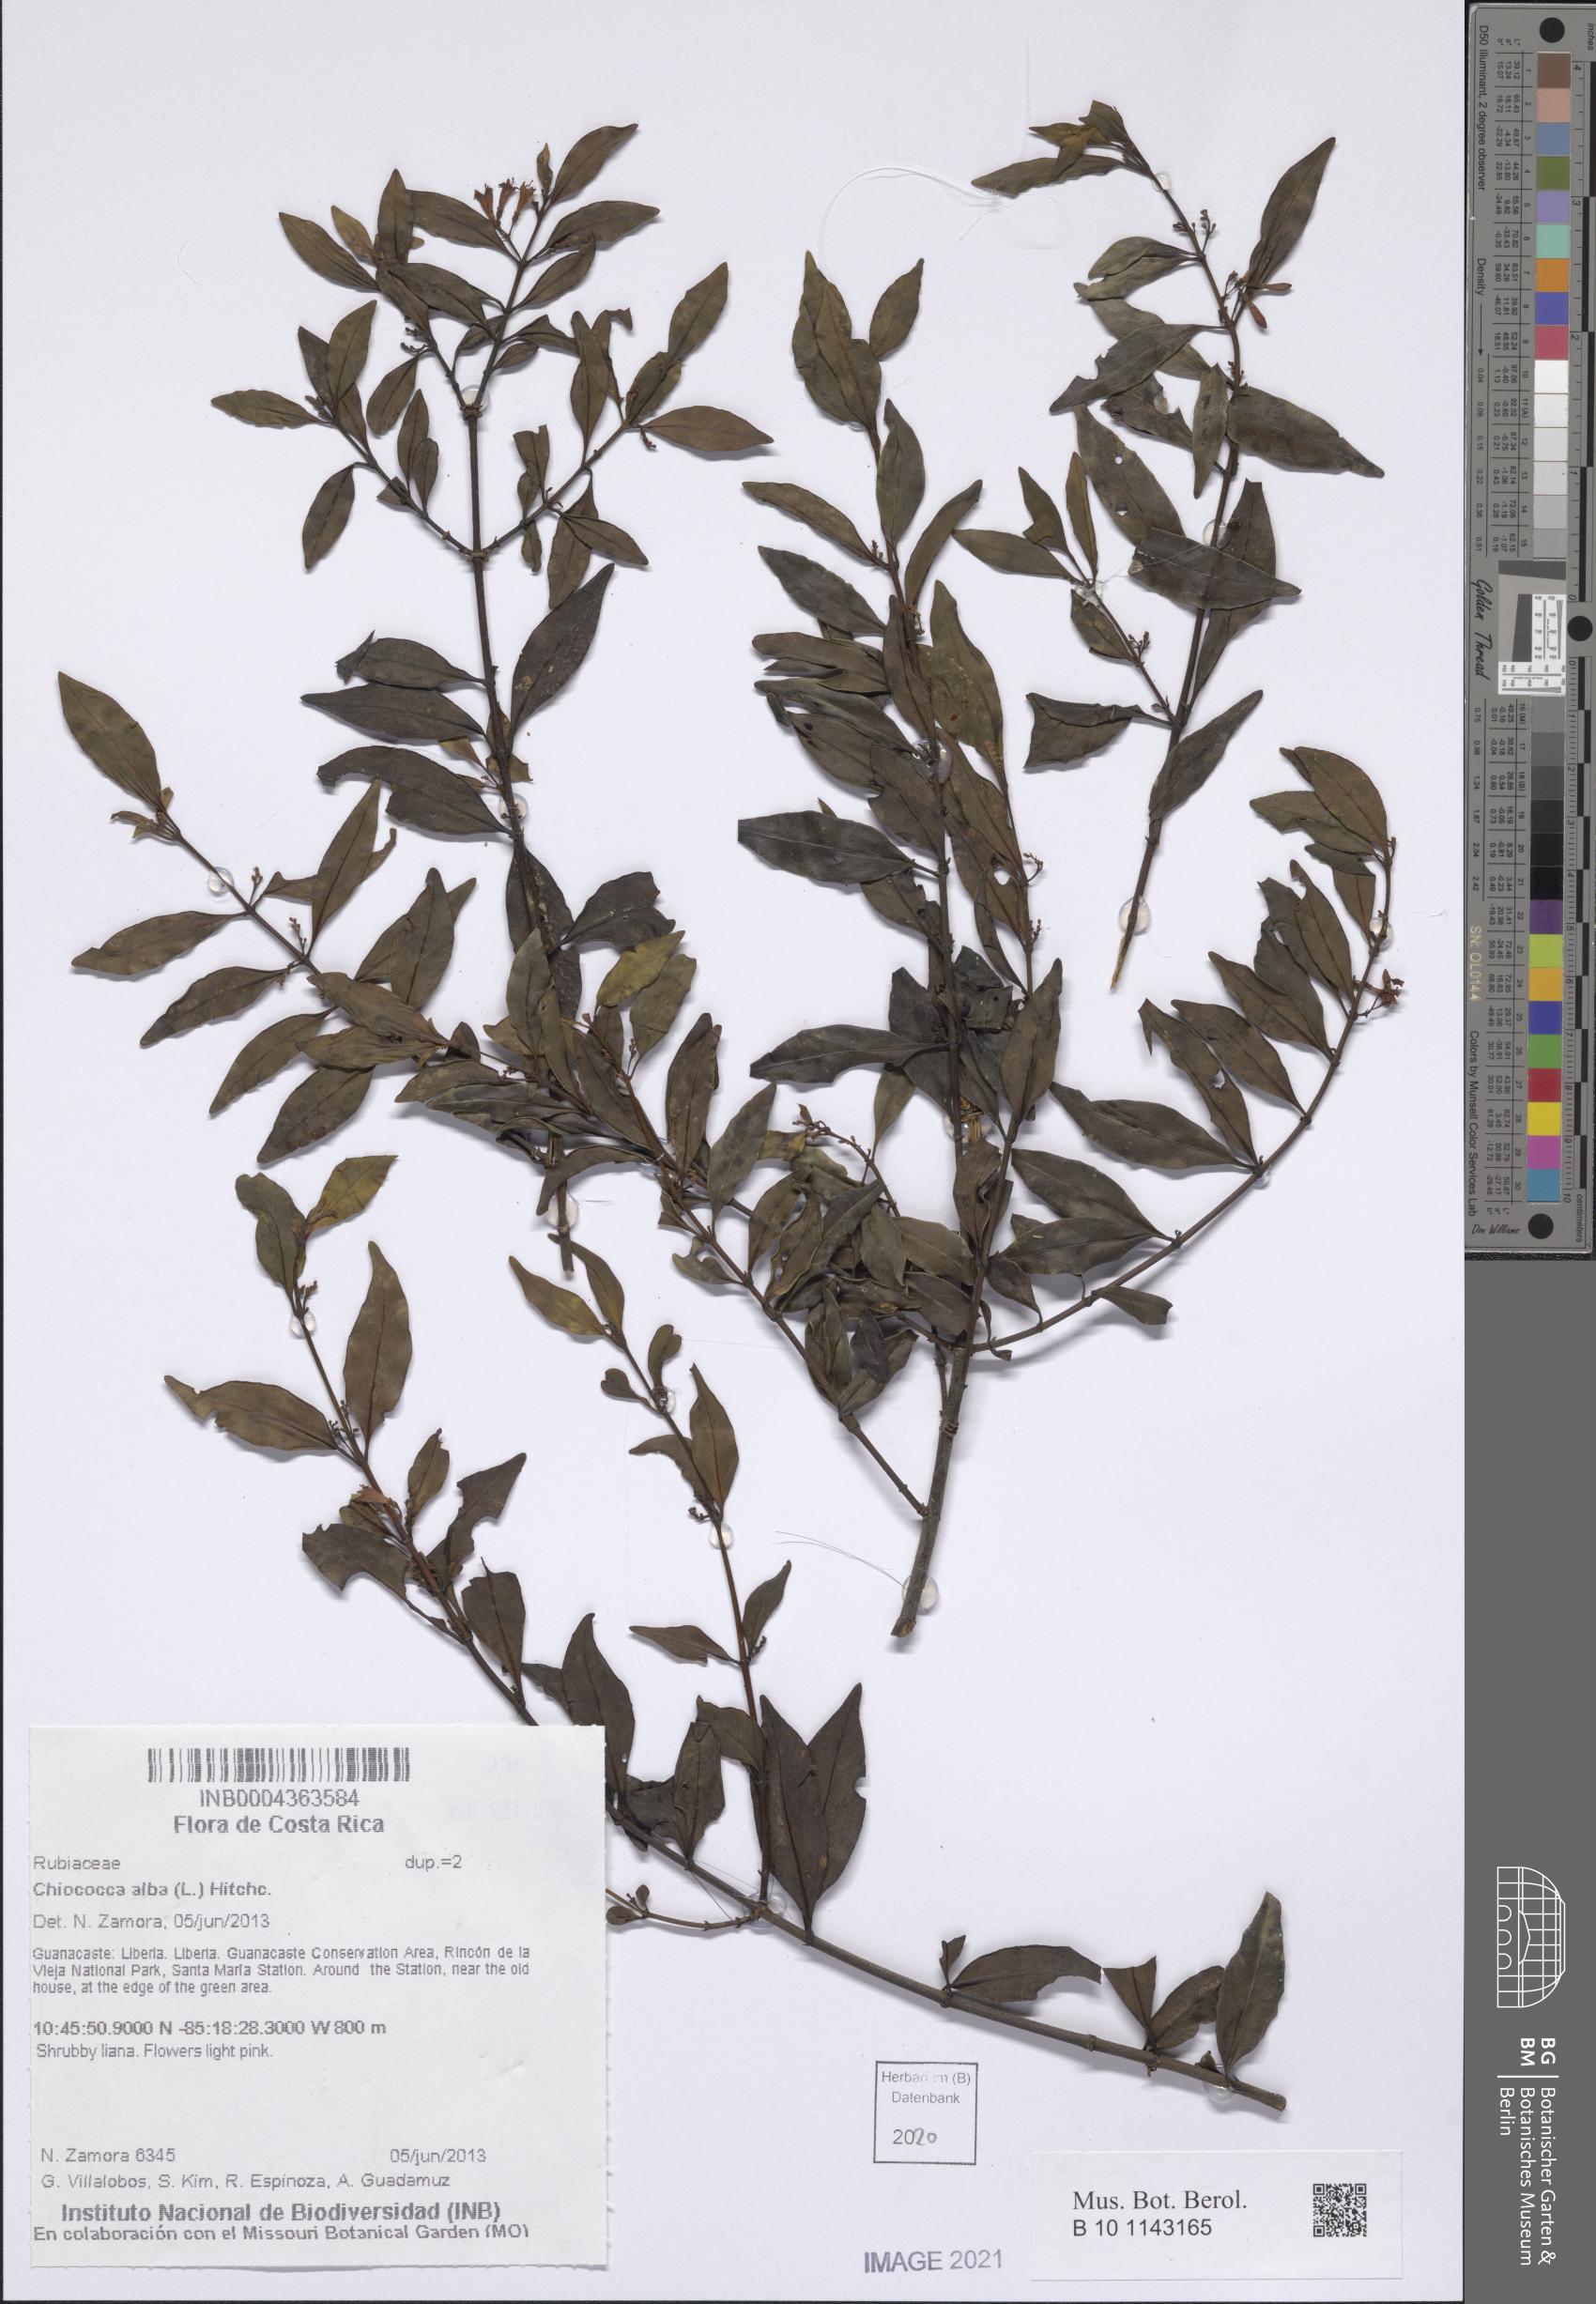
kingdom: Plantae
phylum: Tracheophyta
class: Magnoliopsida
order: Gentianales
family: Rubiaceae
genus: Chiococca
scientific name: Chiococca alba
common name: Snowberry
